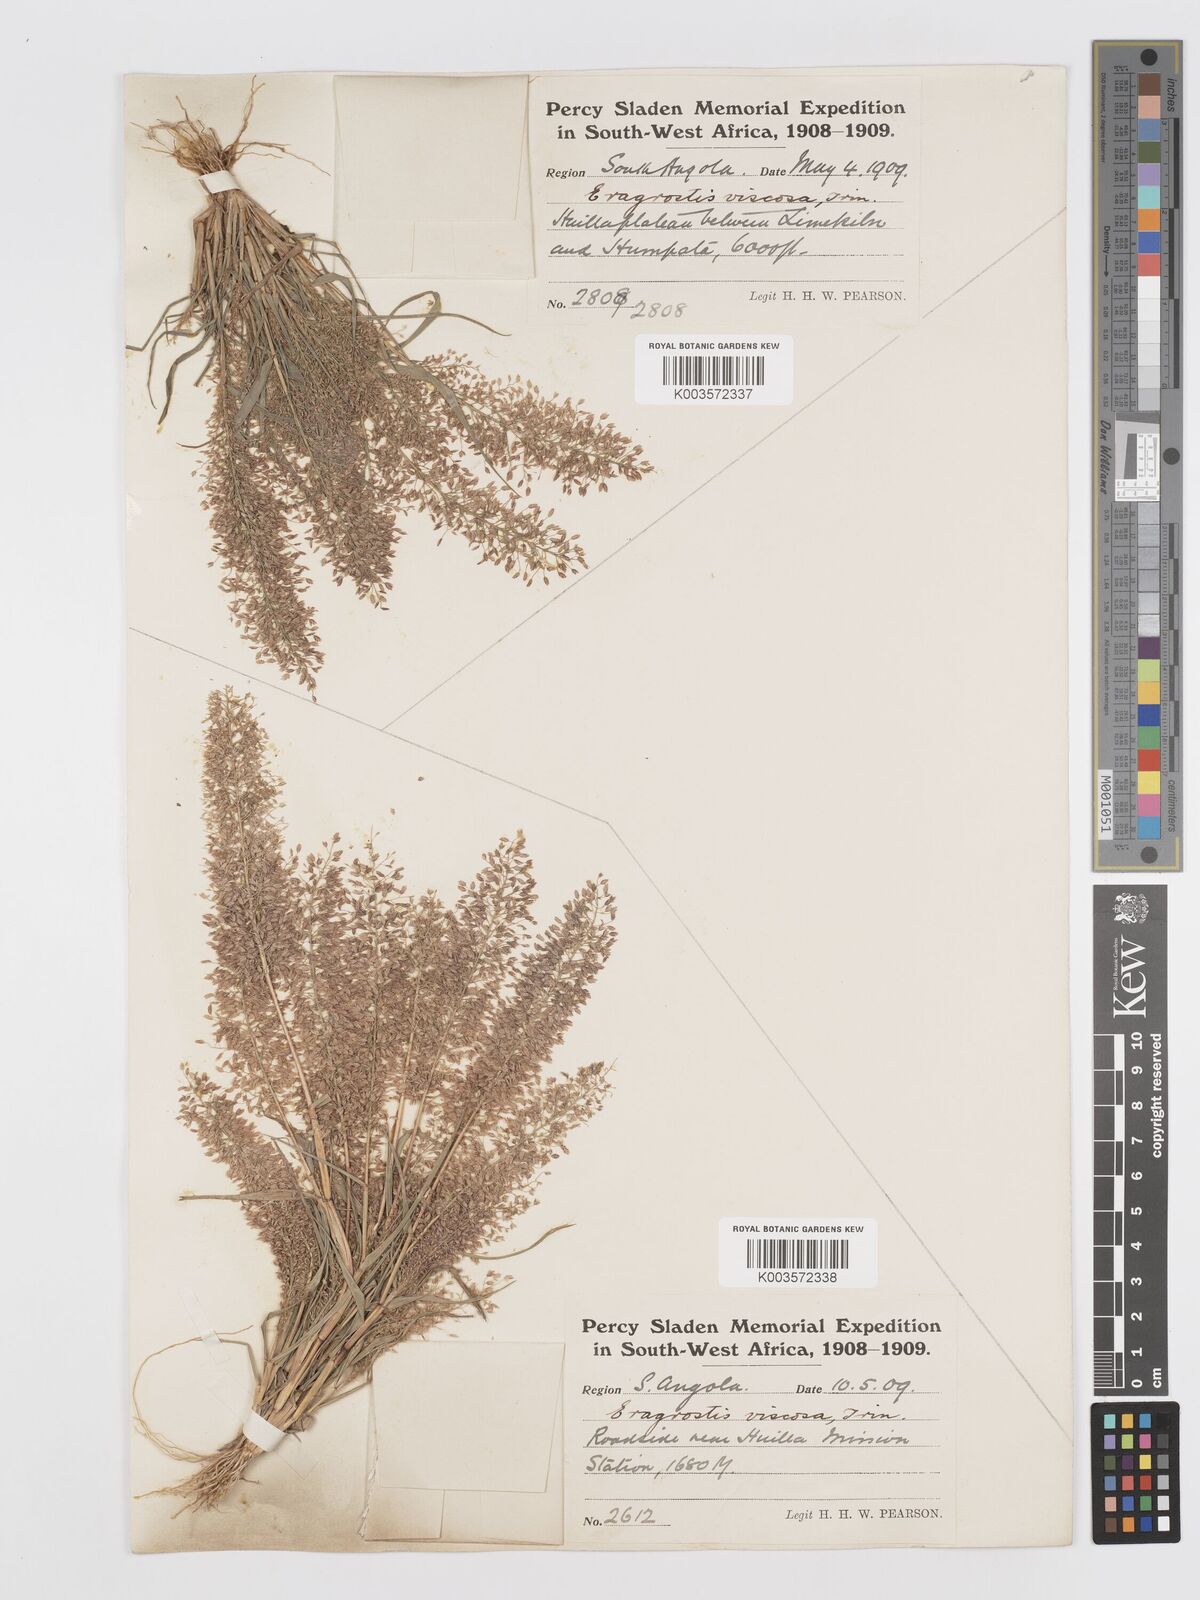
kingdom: Plantae
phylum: Tracheophyta
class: Liliopsida
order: Poales
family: Poaceae
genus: Eragrostis
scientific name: Eragrostis
